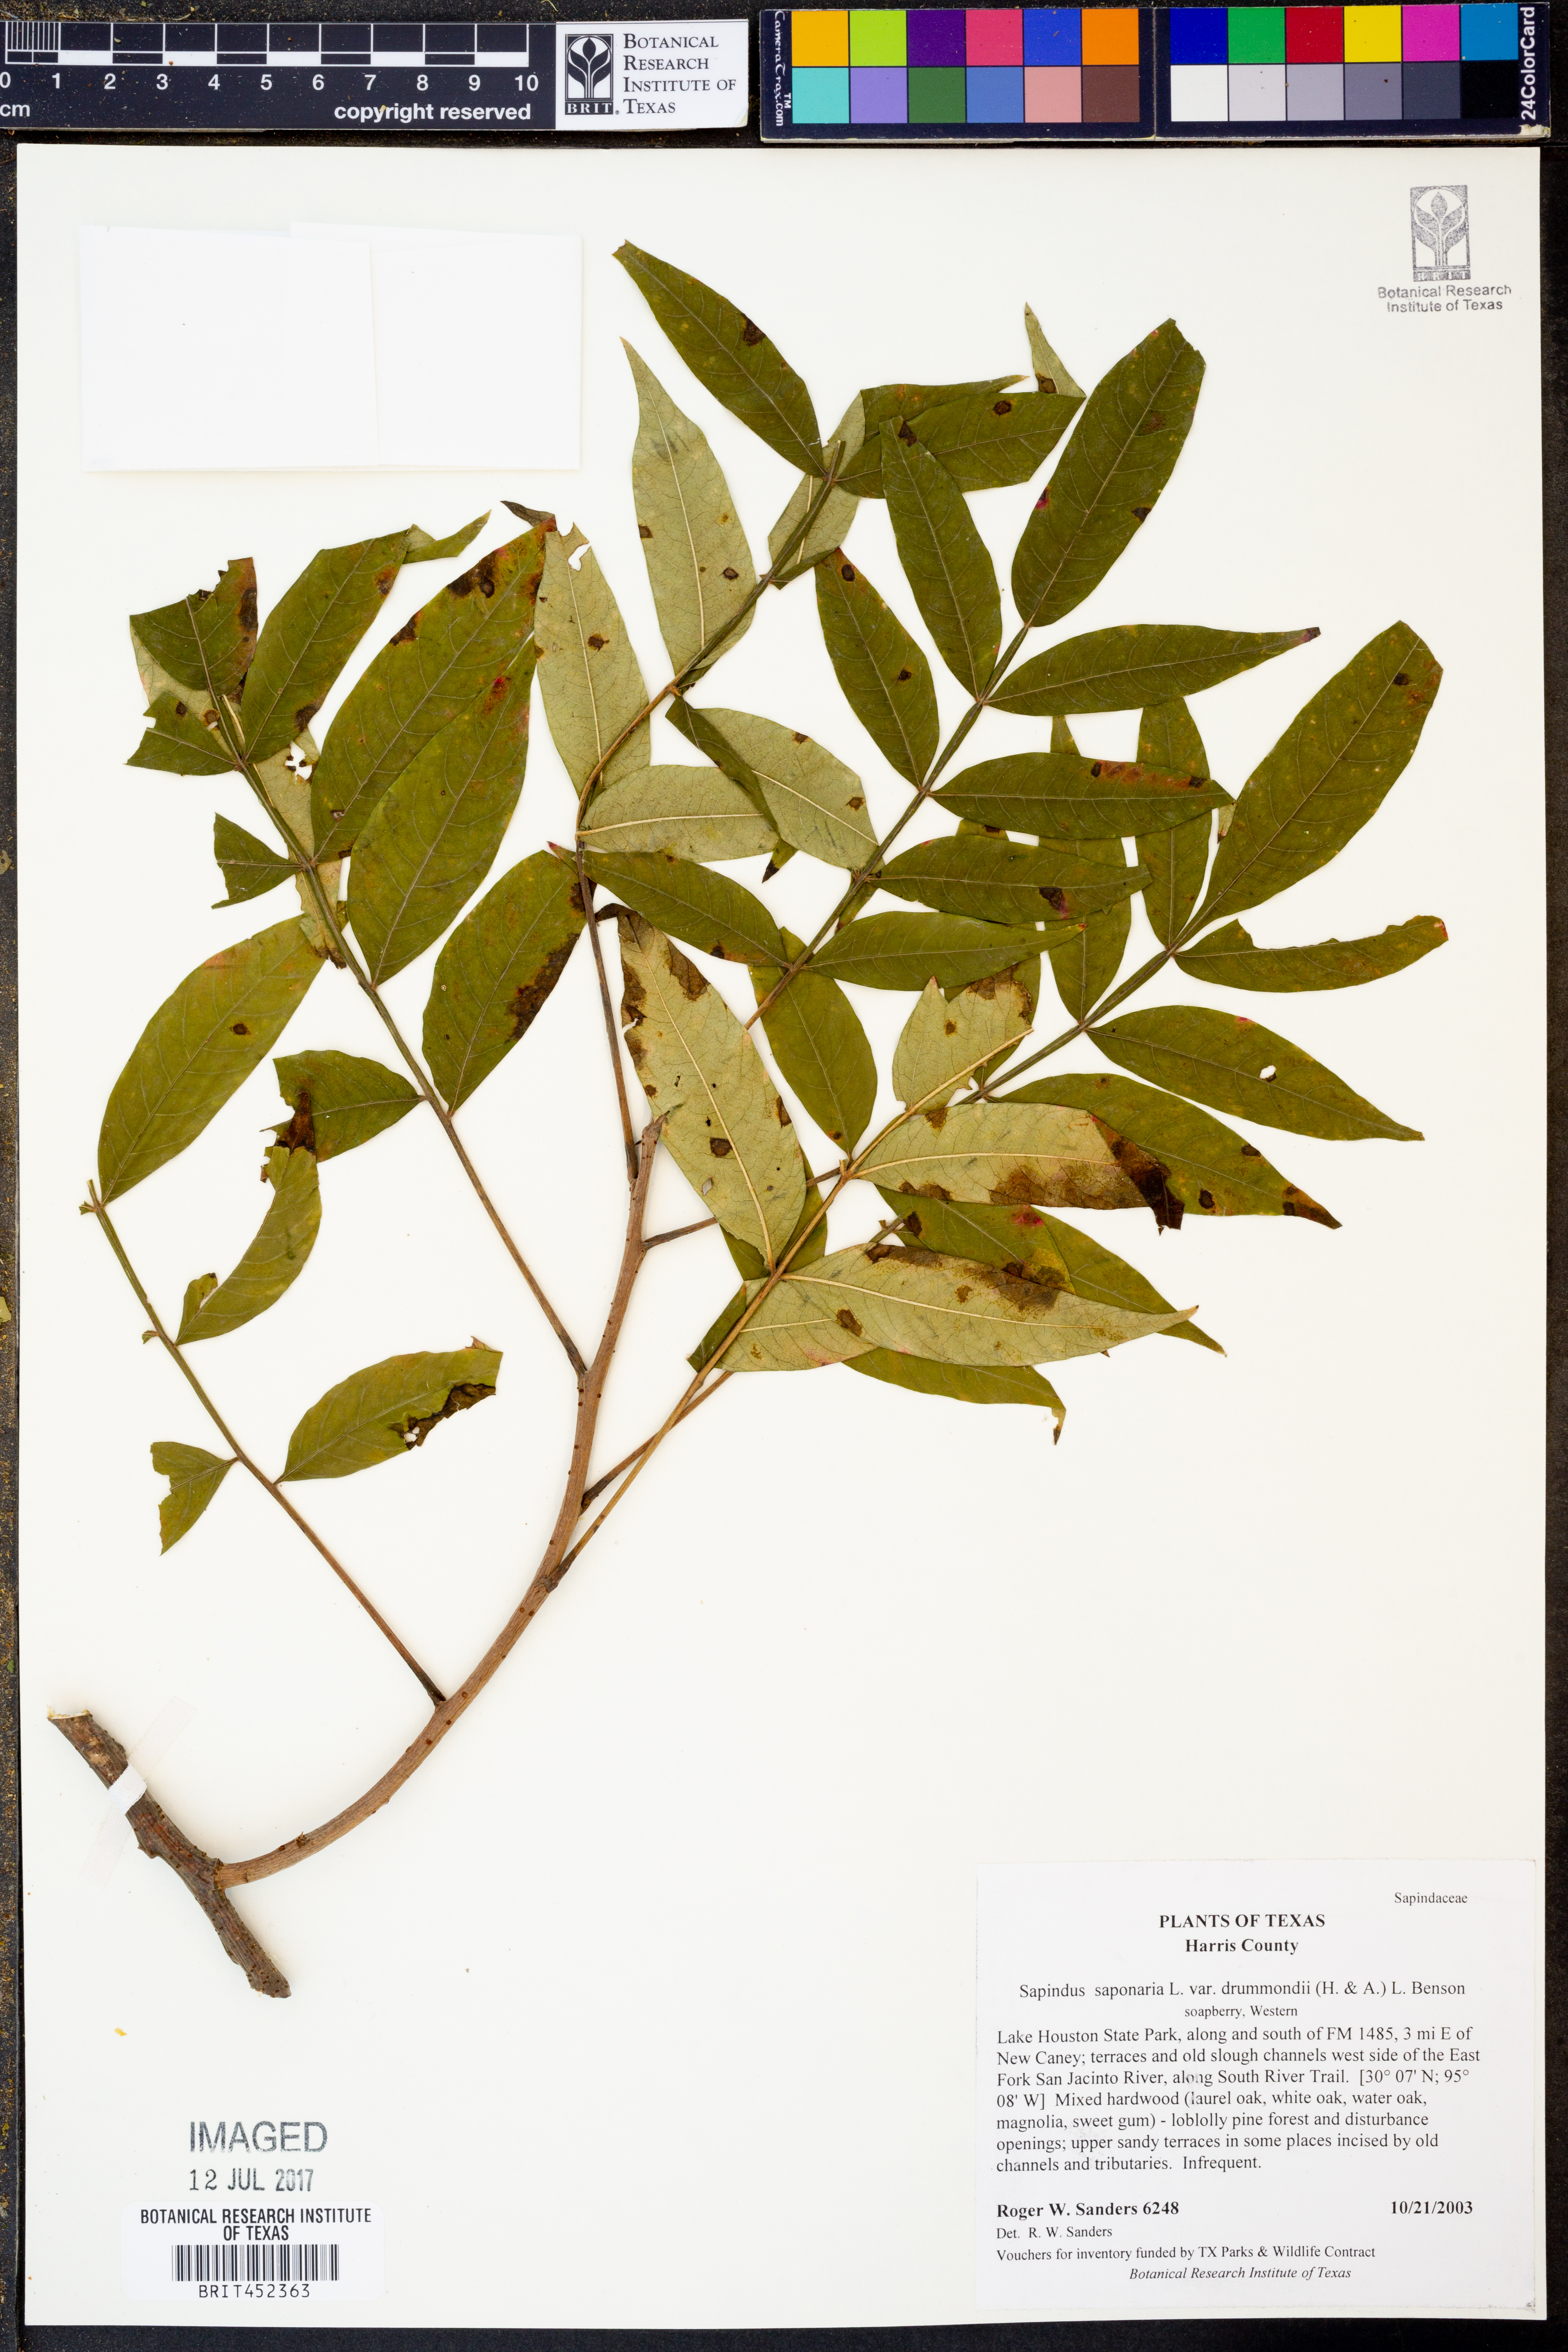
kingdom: Plantae
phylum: Tracheophyta
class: Magnoliopsida
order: Sapindales
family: Sapindaceae
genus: Sapindus
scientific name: Sapindus drummondii
